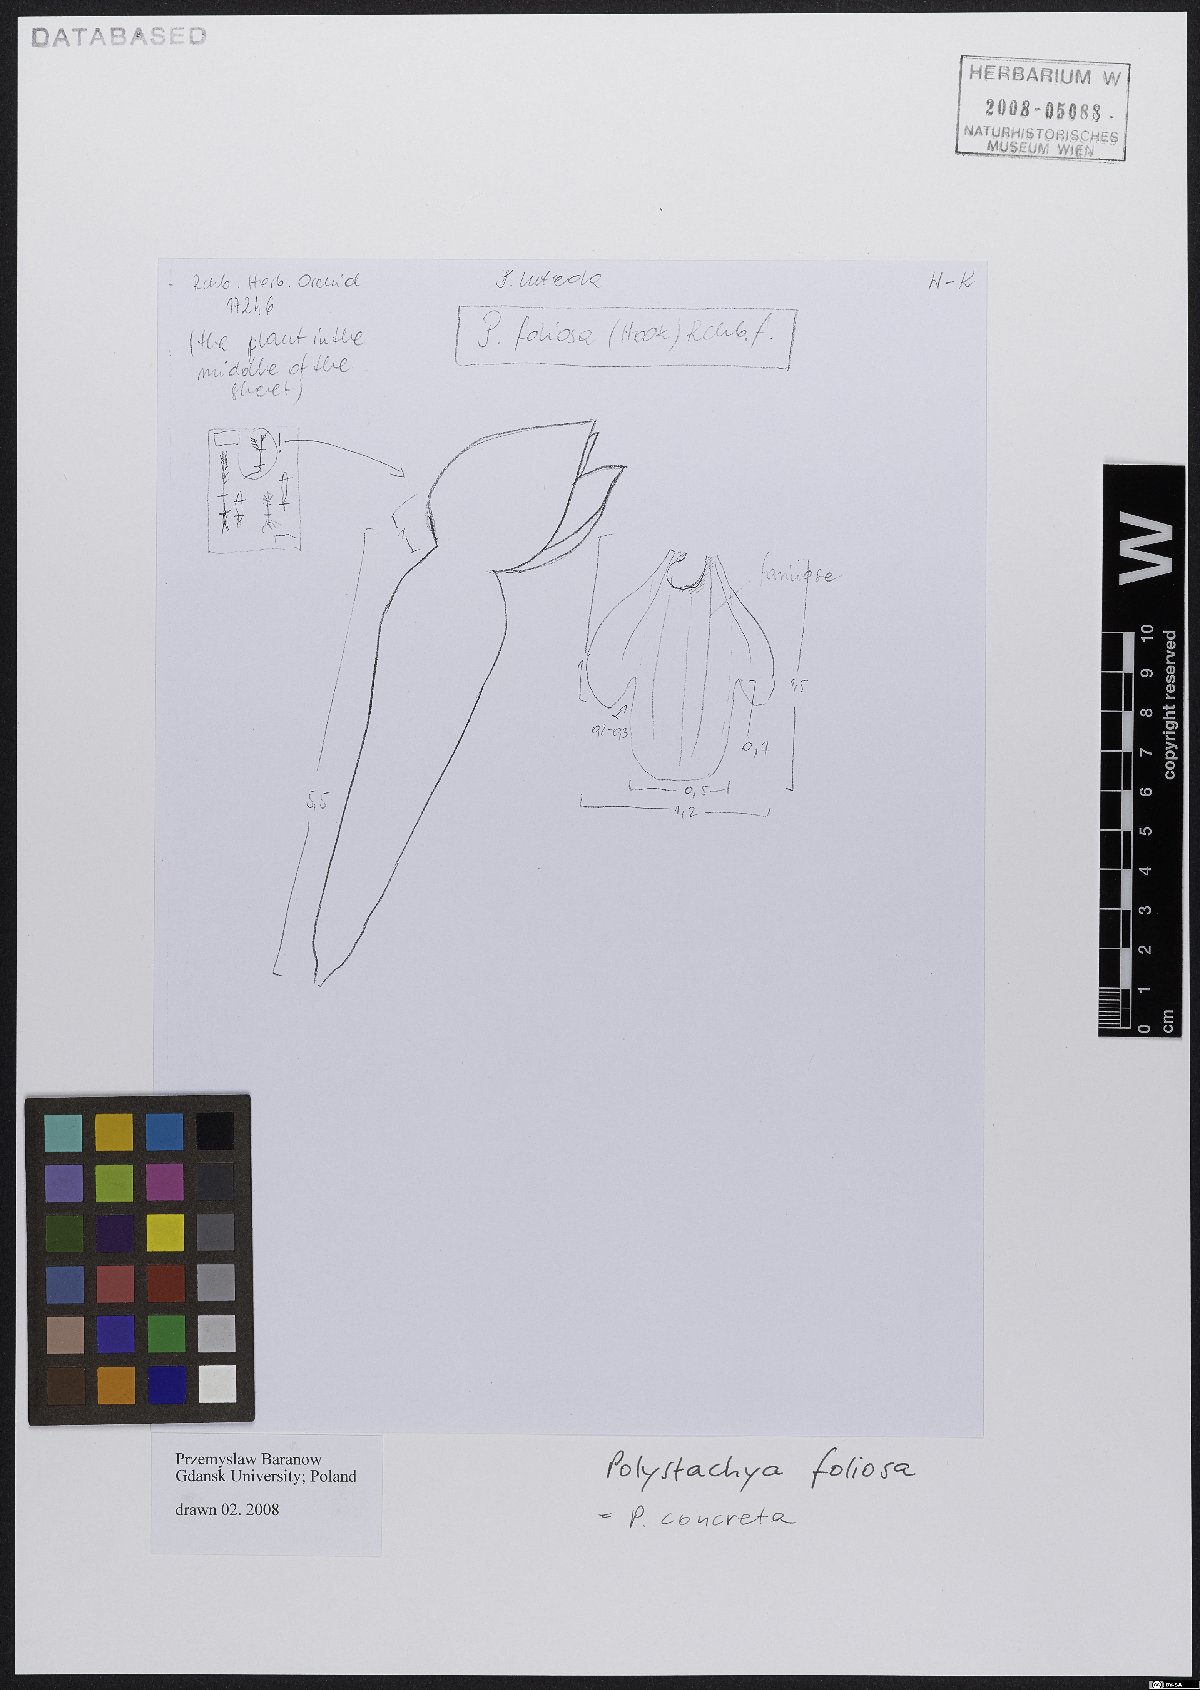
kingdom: Plantae
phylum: Tracheophyta
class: Liliopsida
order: Asparagales
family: Orchidaceae
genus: Polystachya
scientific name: Polystachya concreta
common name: Greater yellowspike orchid
